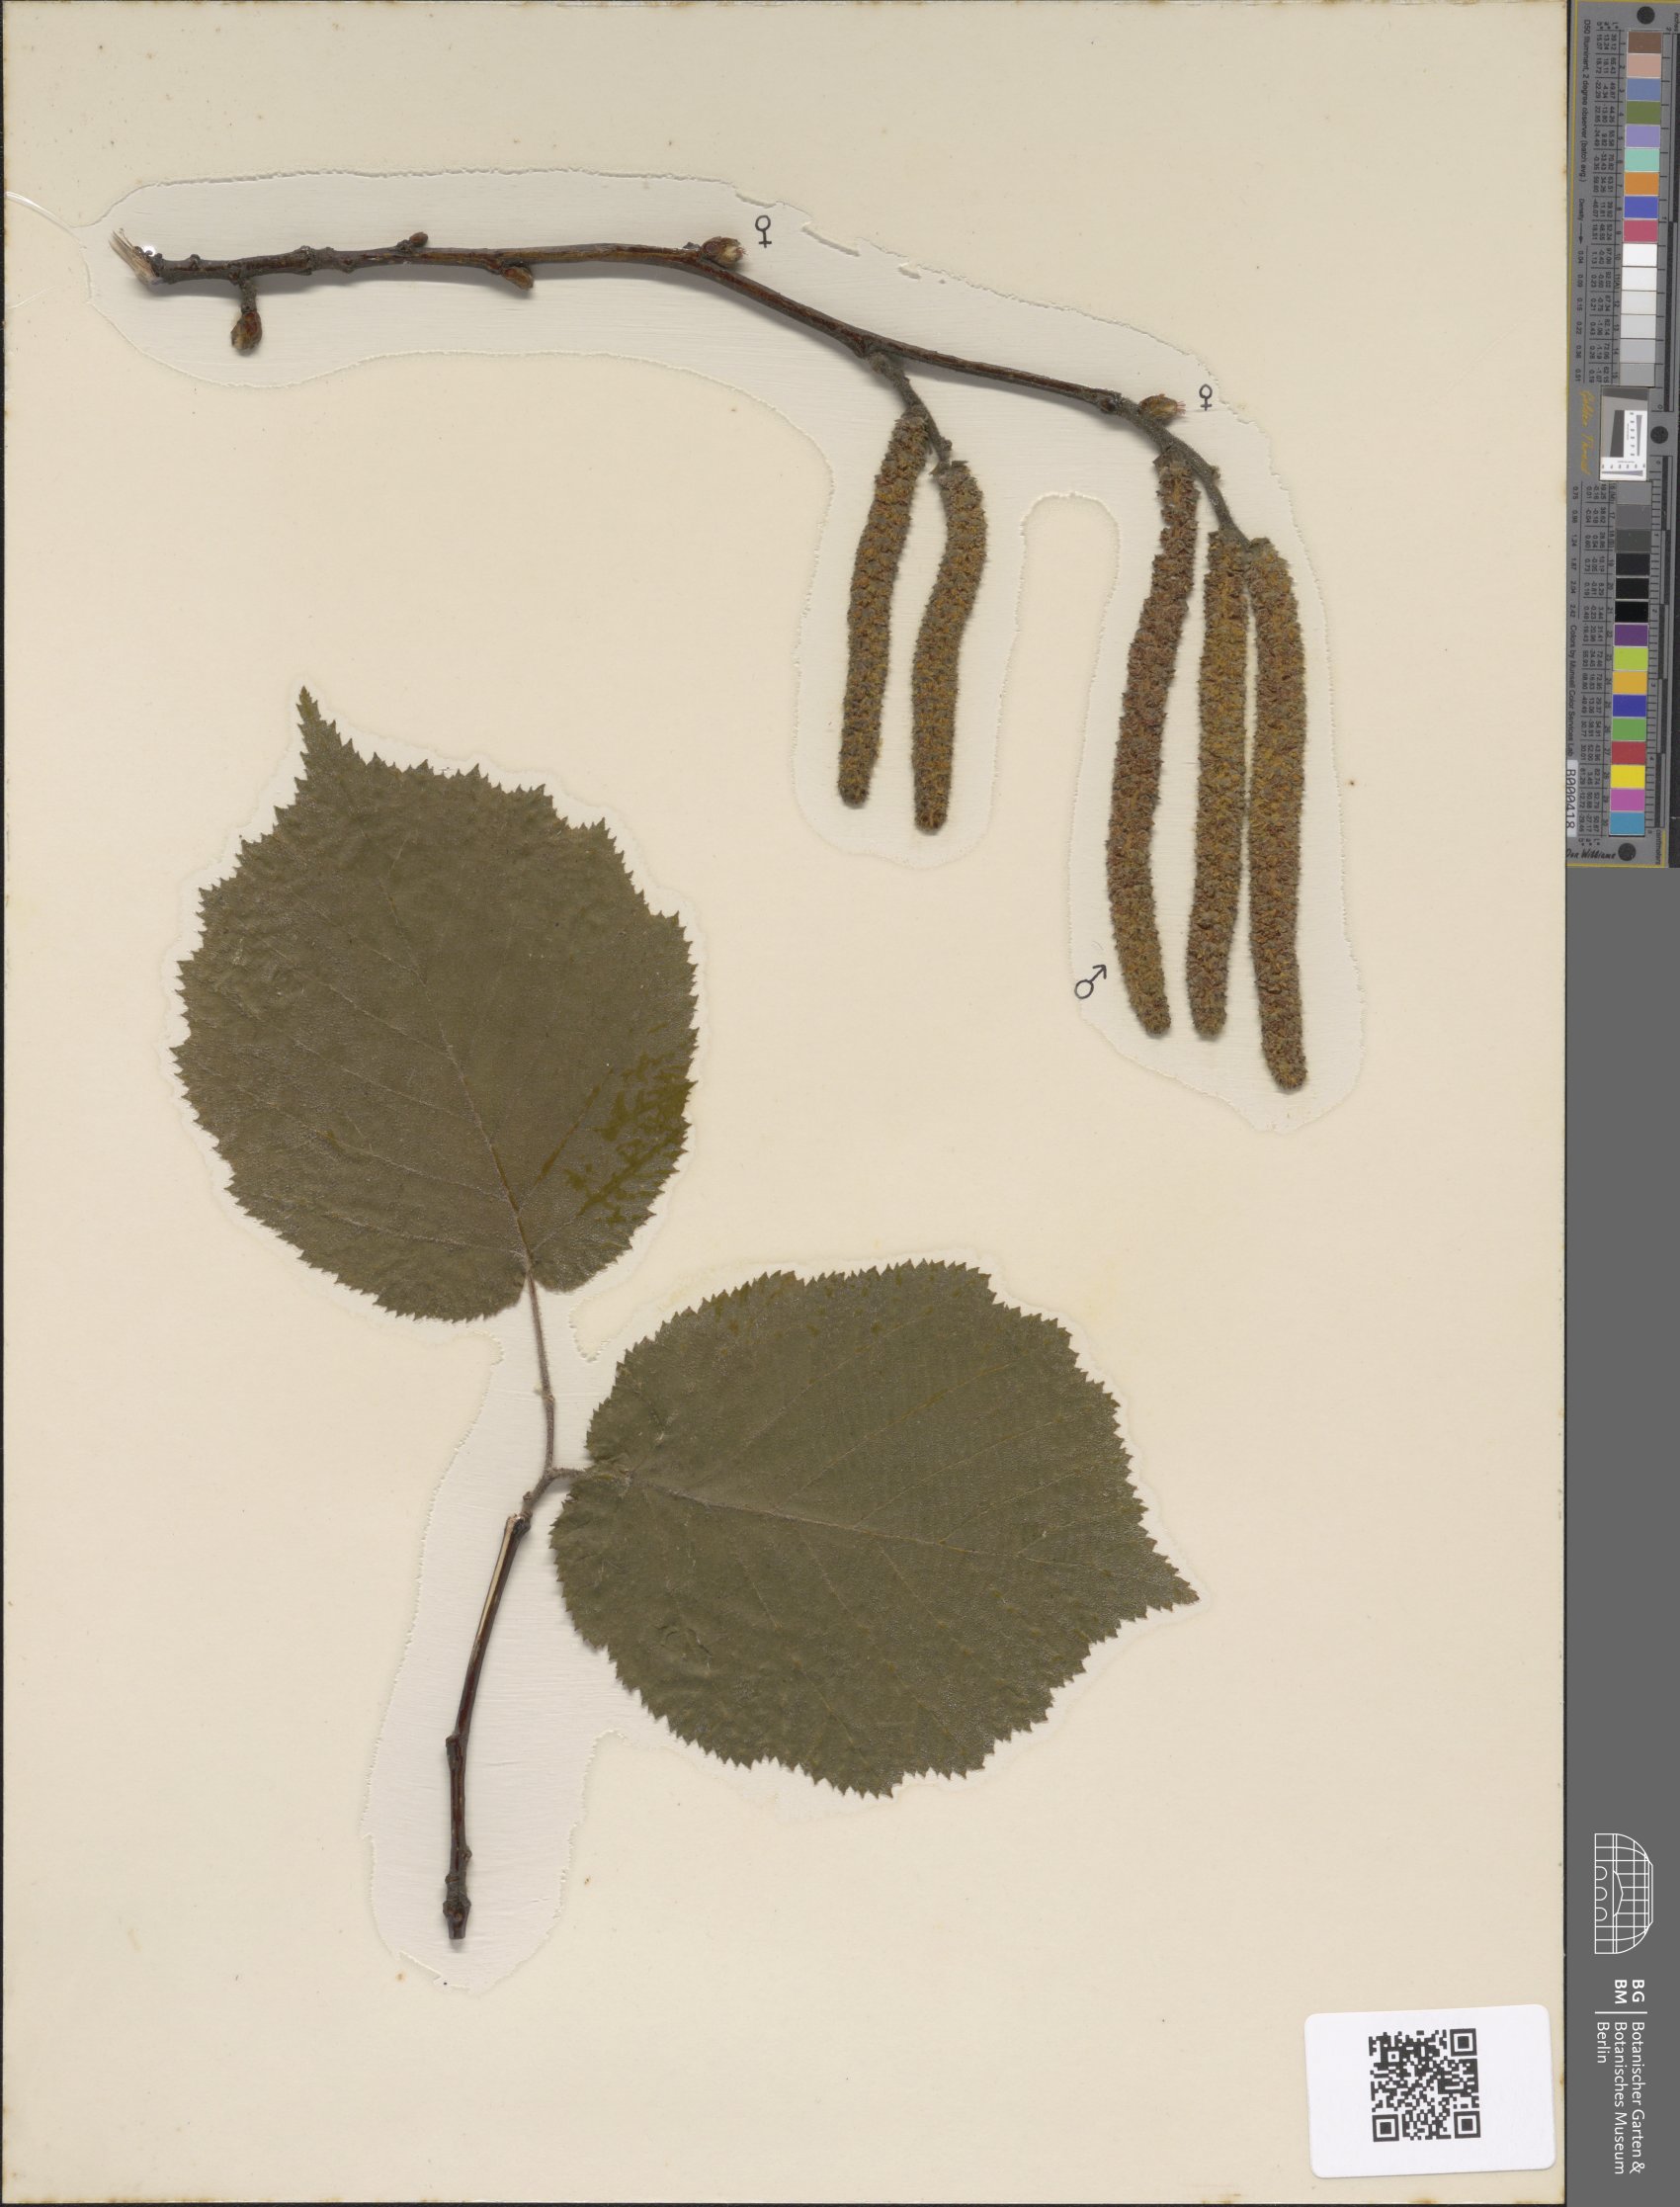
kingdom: Plantae
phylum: Tracheophyta
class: Magnoliopsida
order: Fagales
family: Betulaceae
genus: Corylus
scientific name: Corylus avellana
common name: European hazel
